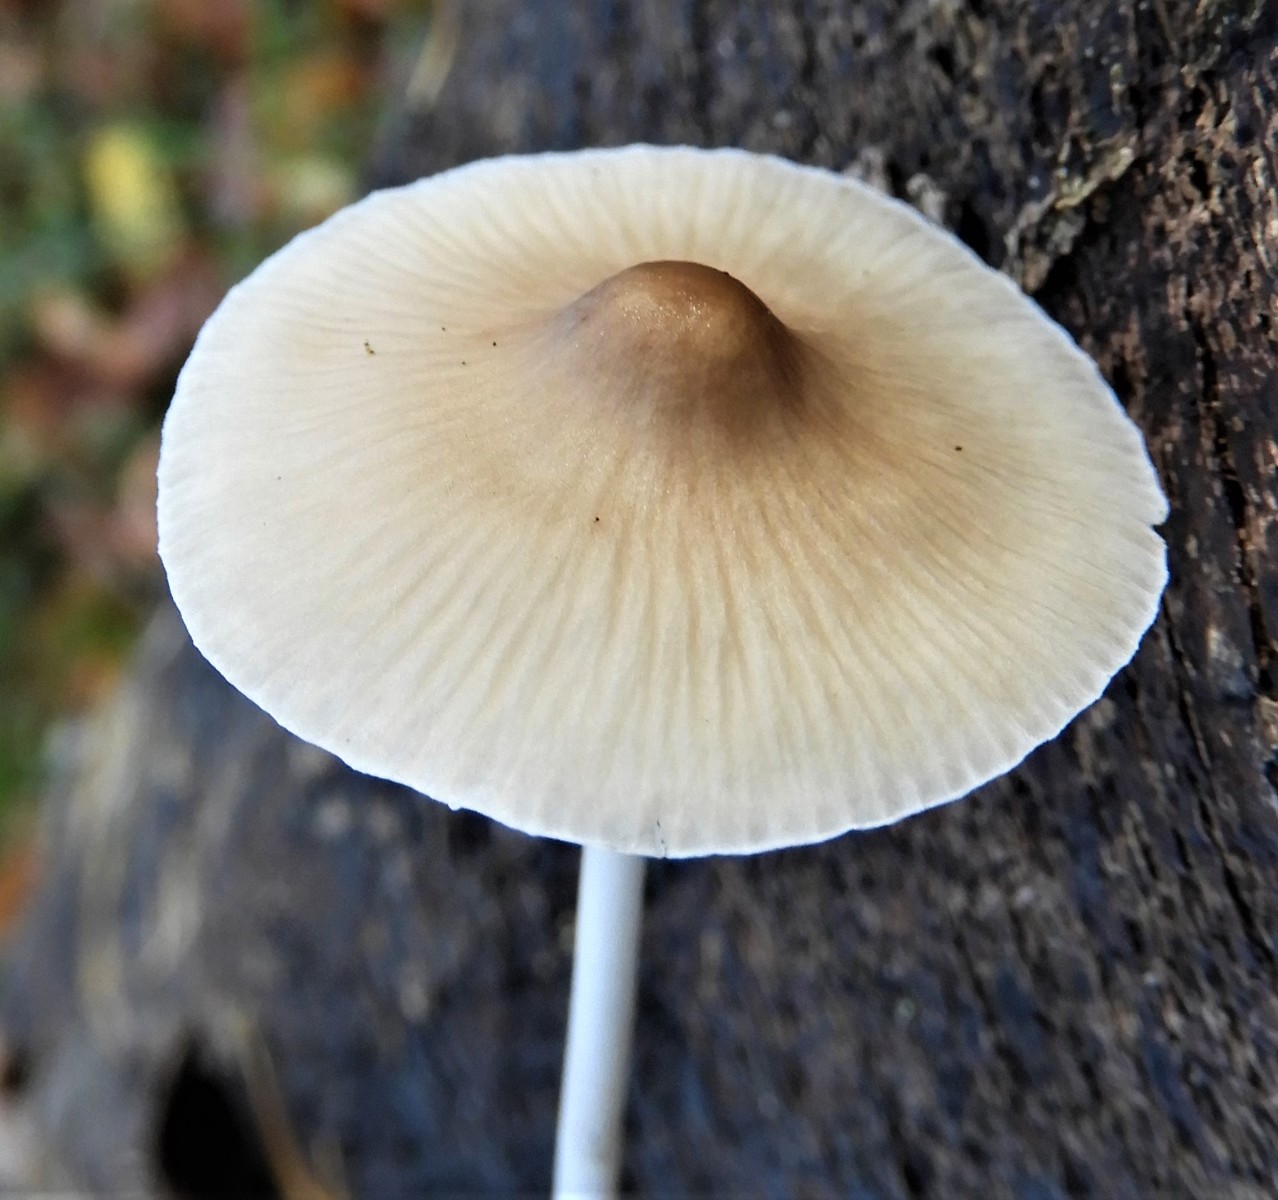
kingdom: Fungi
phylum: Basidiomycota
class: Agaricomycetes
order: Agaricales
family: Mycenaceae
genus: Mycena
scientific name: Mycena
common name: huesvamp
